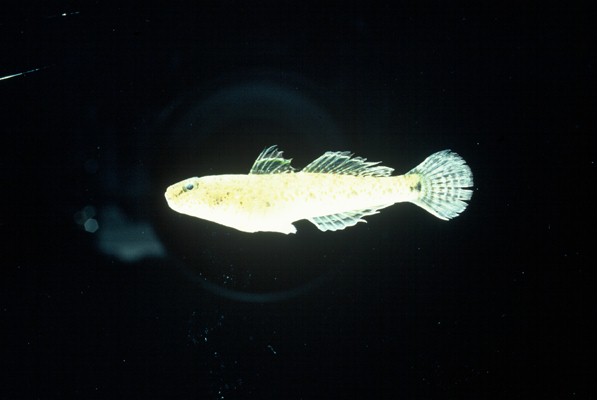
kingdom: Animalia
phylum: Chordata
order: Perciformes
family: Gobiidae
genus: Psammogobius
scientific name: Psammogobius knysnaensis
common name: Knysna sandgoby
